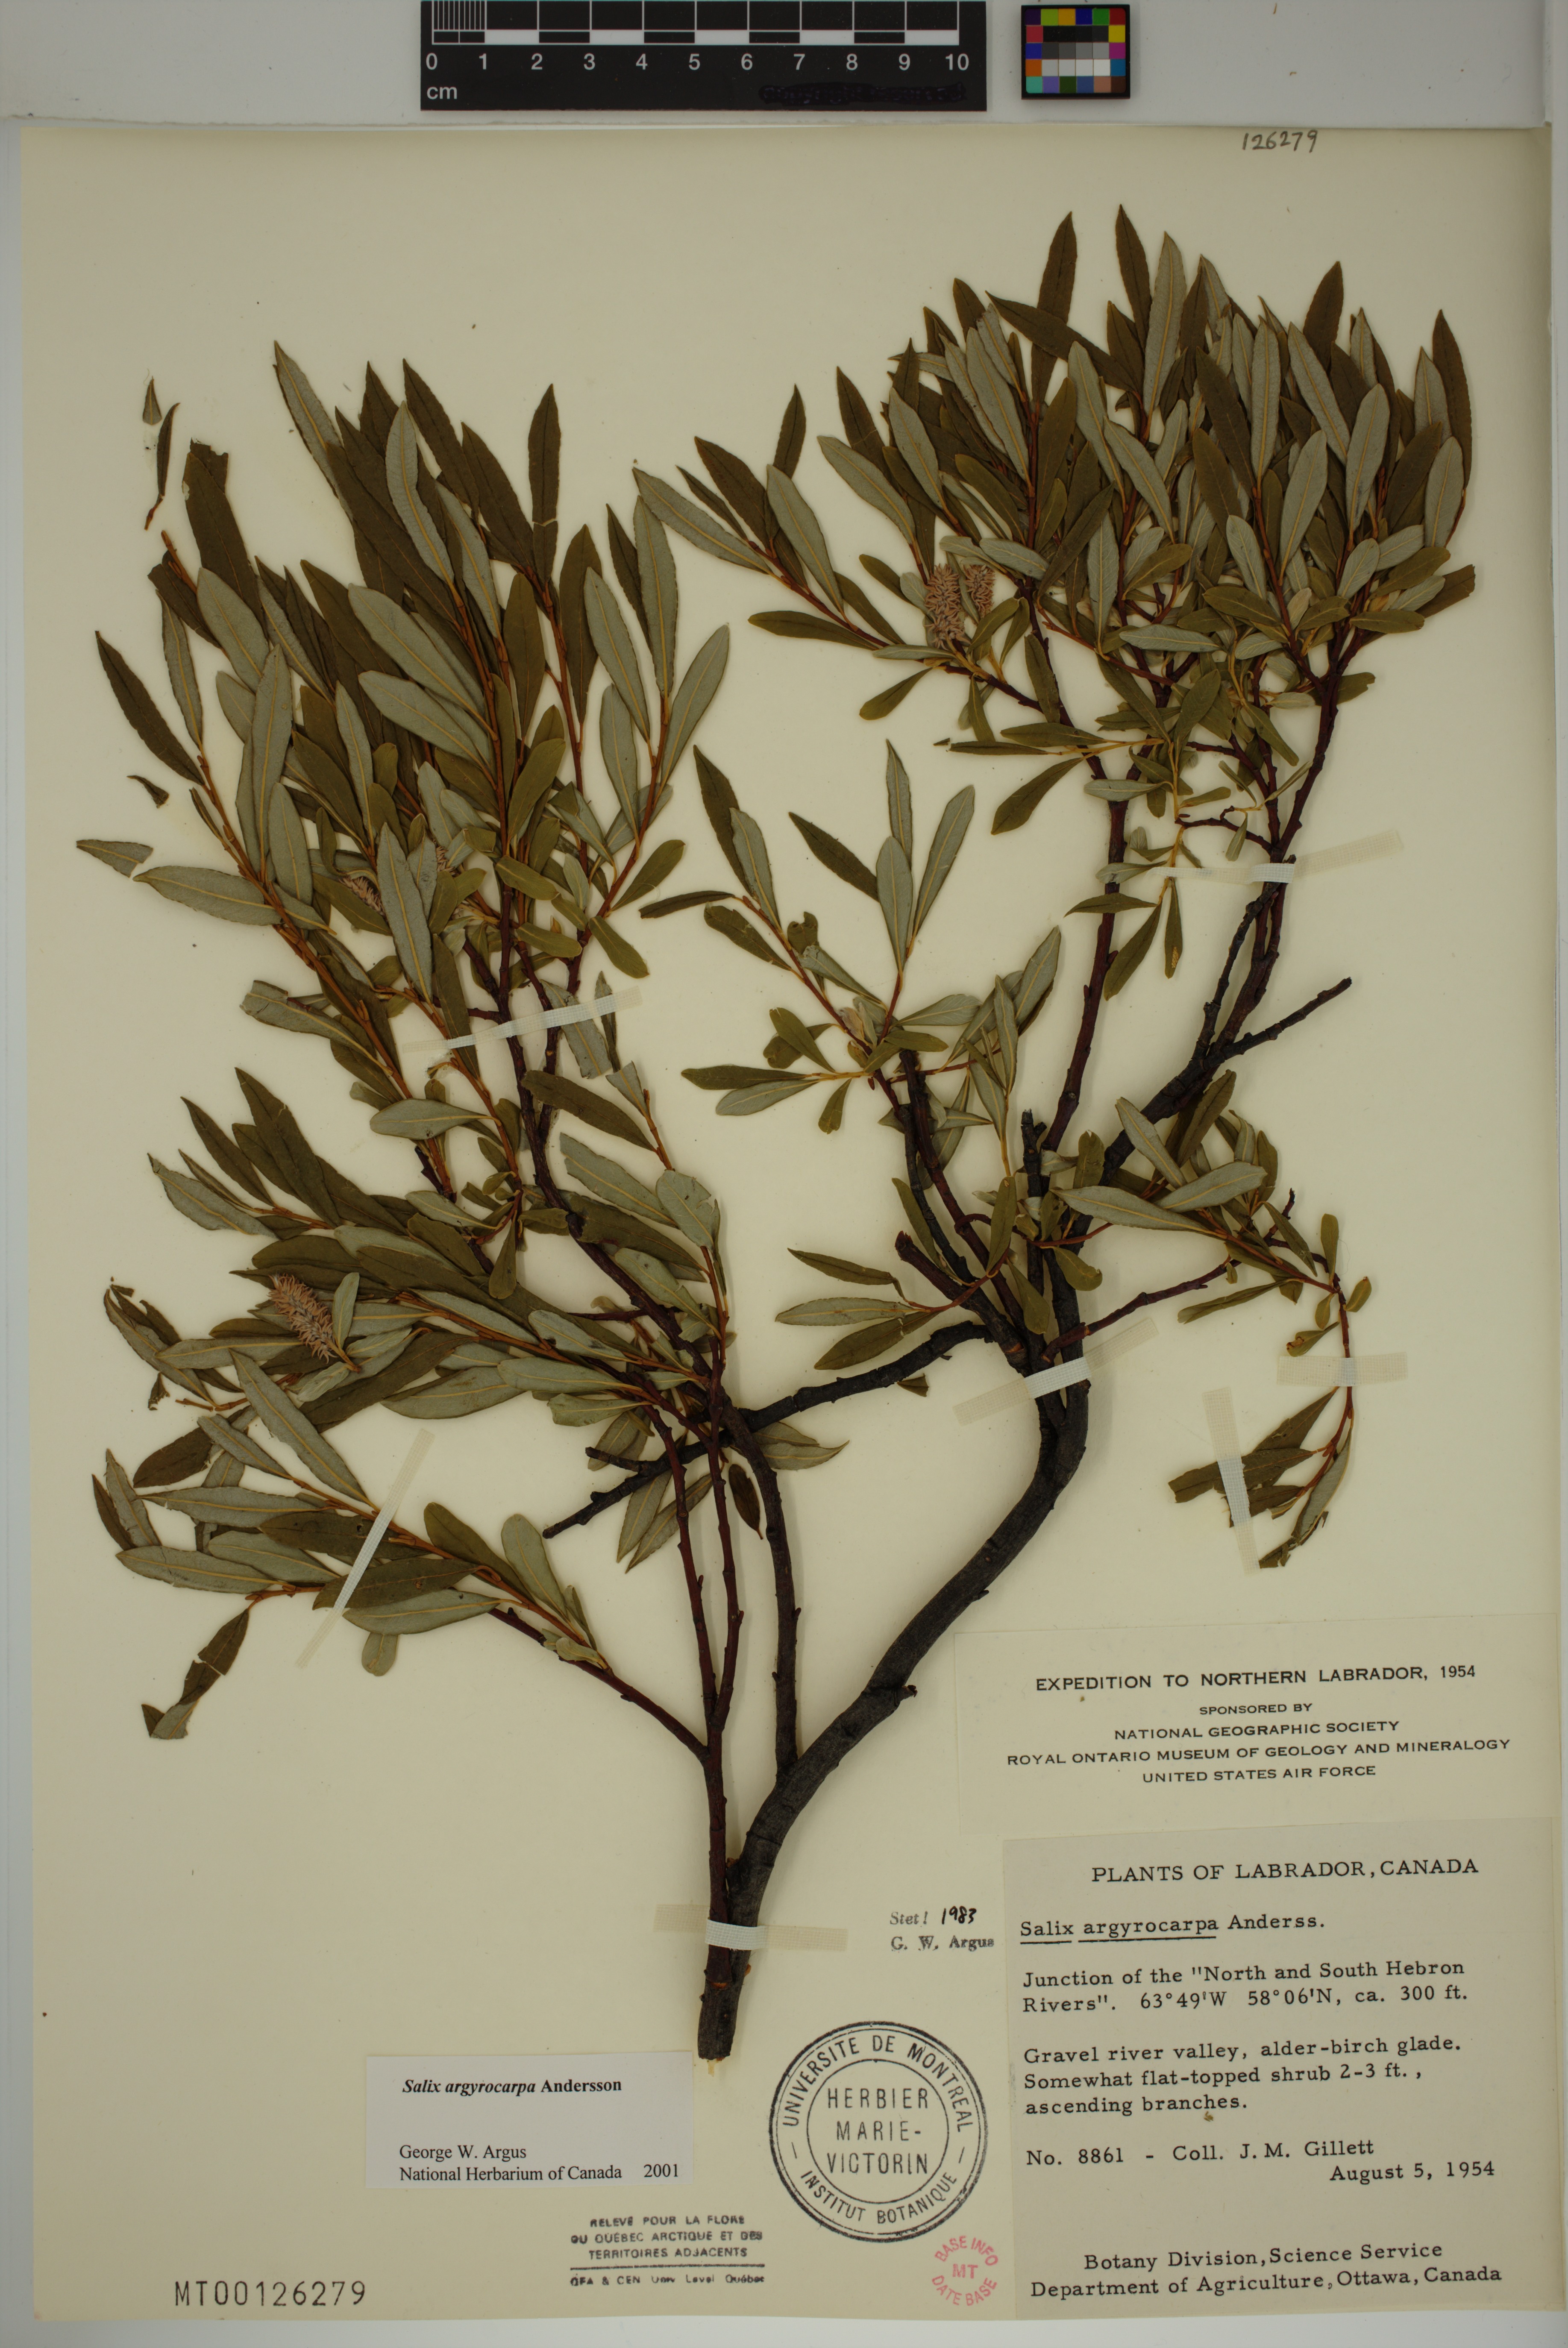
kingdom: Plantae
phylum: Tracheophyta
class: Magnoliopsida
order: Malpighiales
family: Salicaceae
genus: Salix
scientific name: Salix argyrocarpa
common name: Labrador willow
